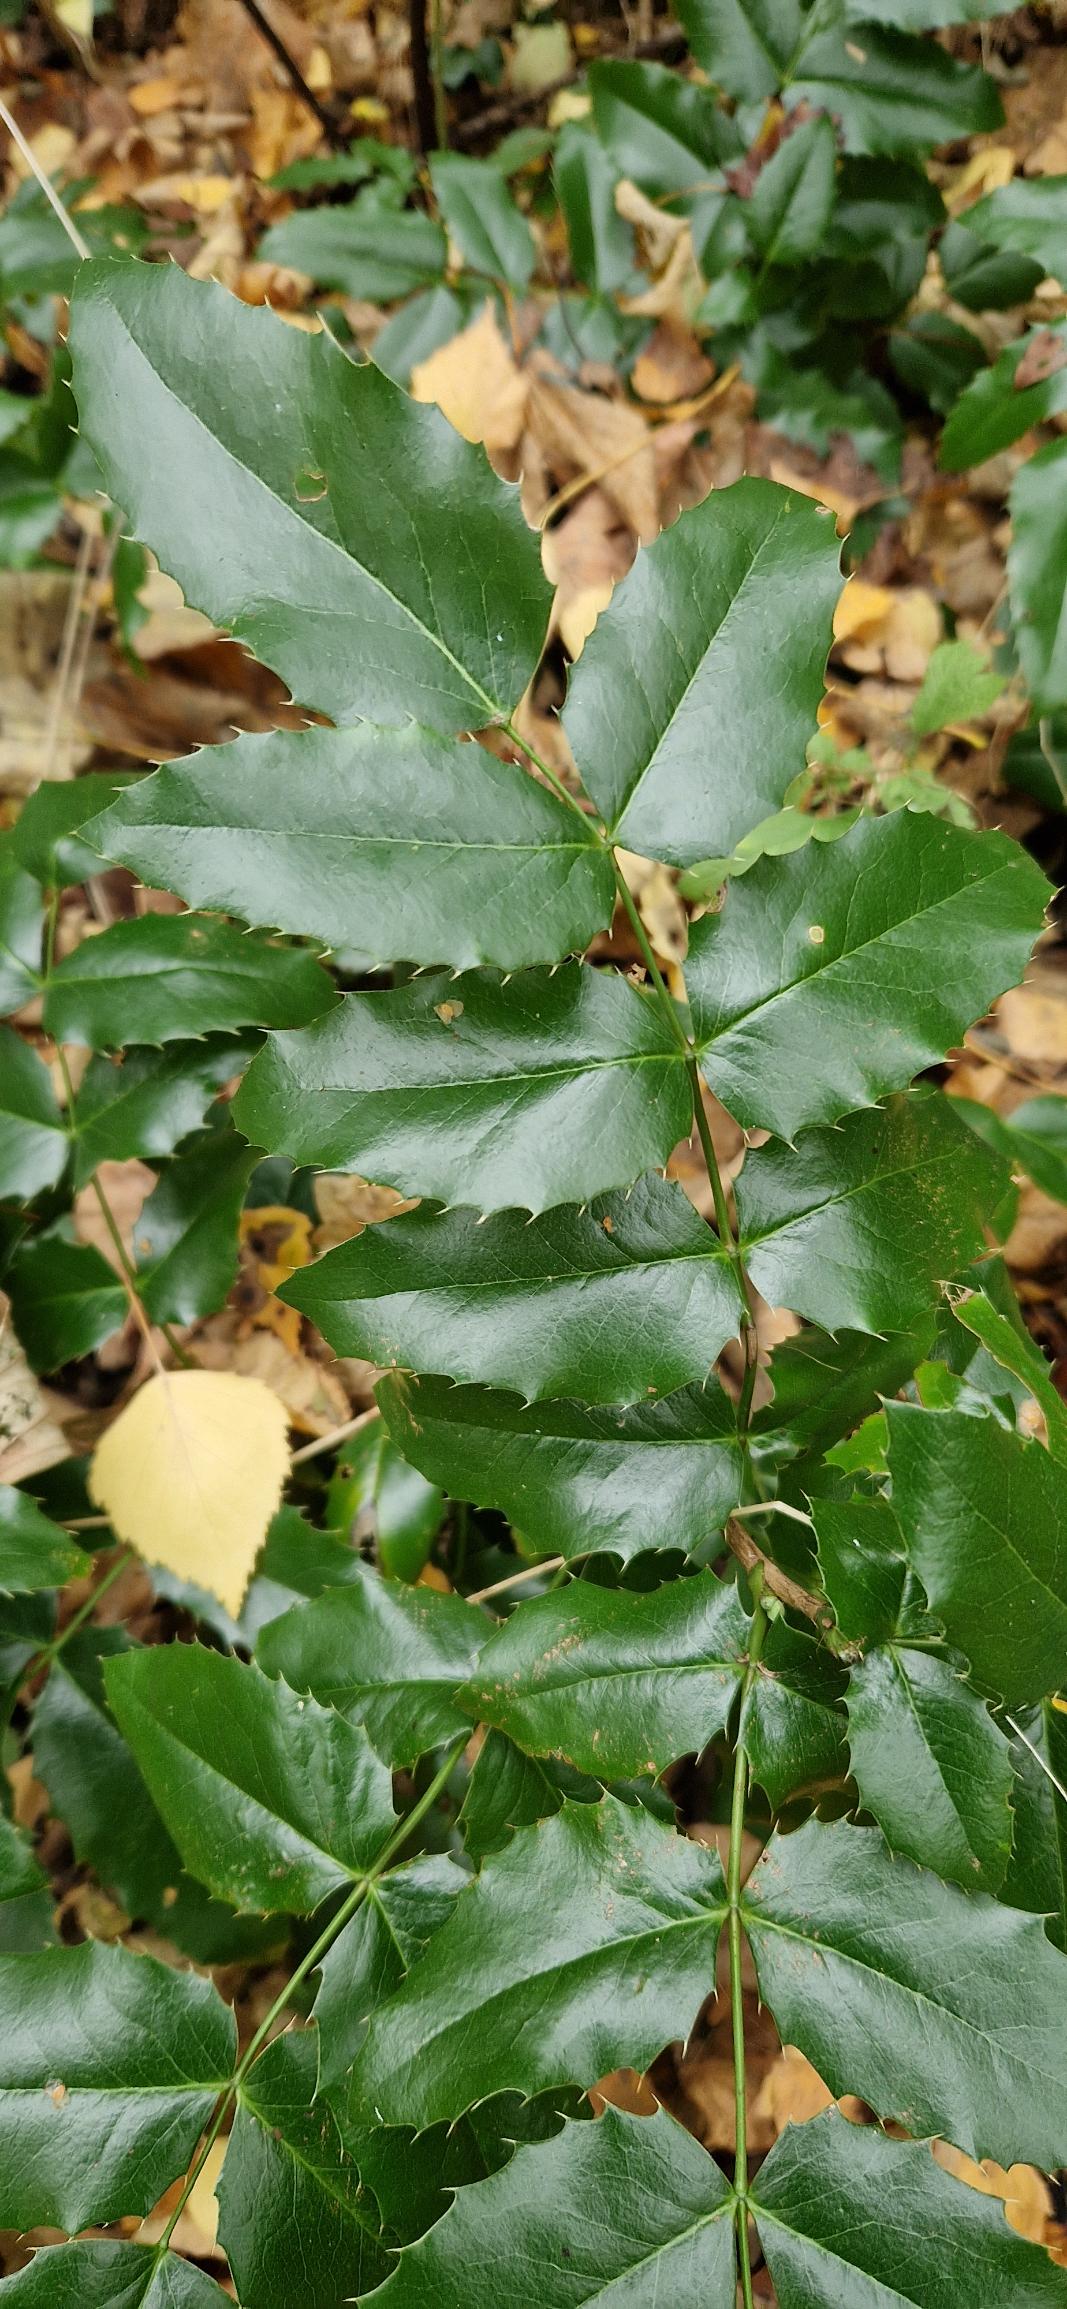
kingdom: Plantae
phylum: Tracheophyta
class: Magnoliopsida
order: Ranunculales
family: Berberidaceae
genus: Mahonia
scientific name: Mahonia aquifolium
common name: Almindelig mahonie
